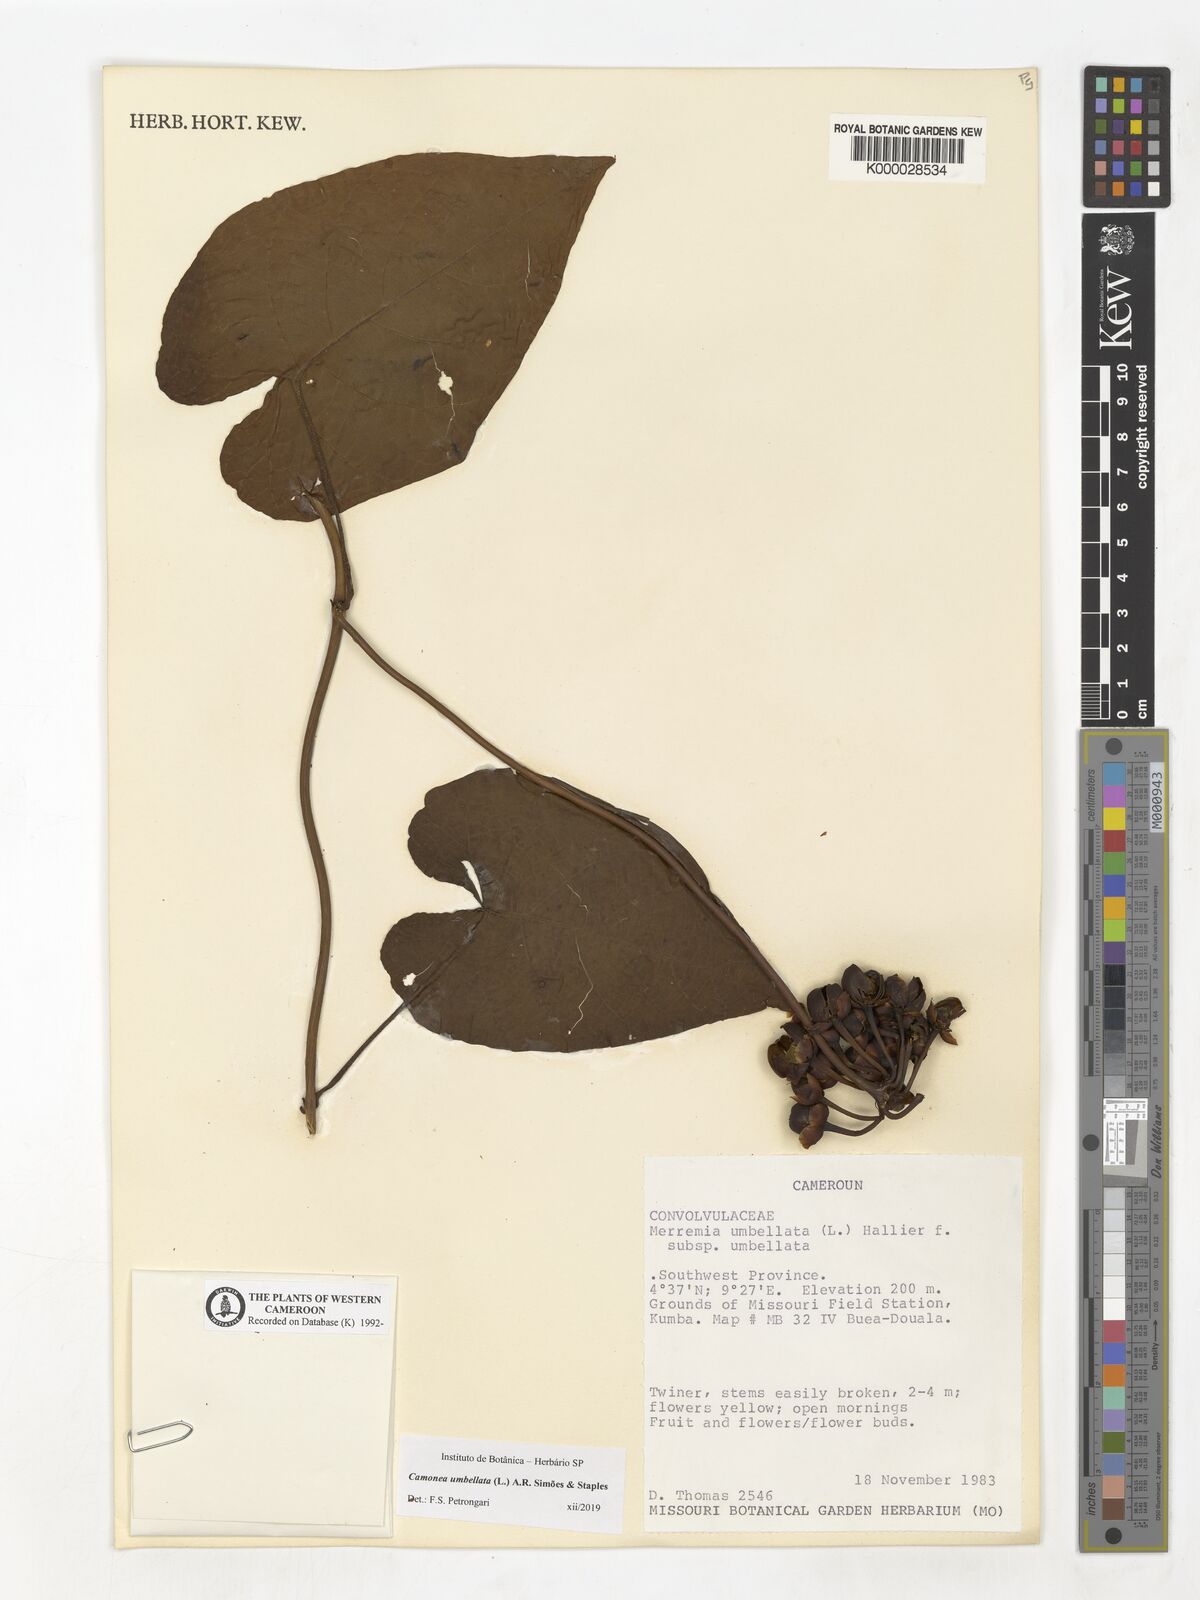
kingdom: Plantae
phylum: Tracheophyta
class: Magnoliopsida
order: Solanales
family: Convolvulaceae
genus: Camonea
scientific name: Camonea umbellata
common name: Hogvine
